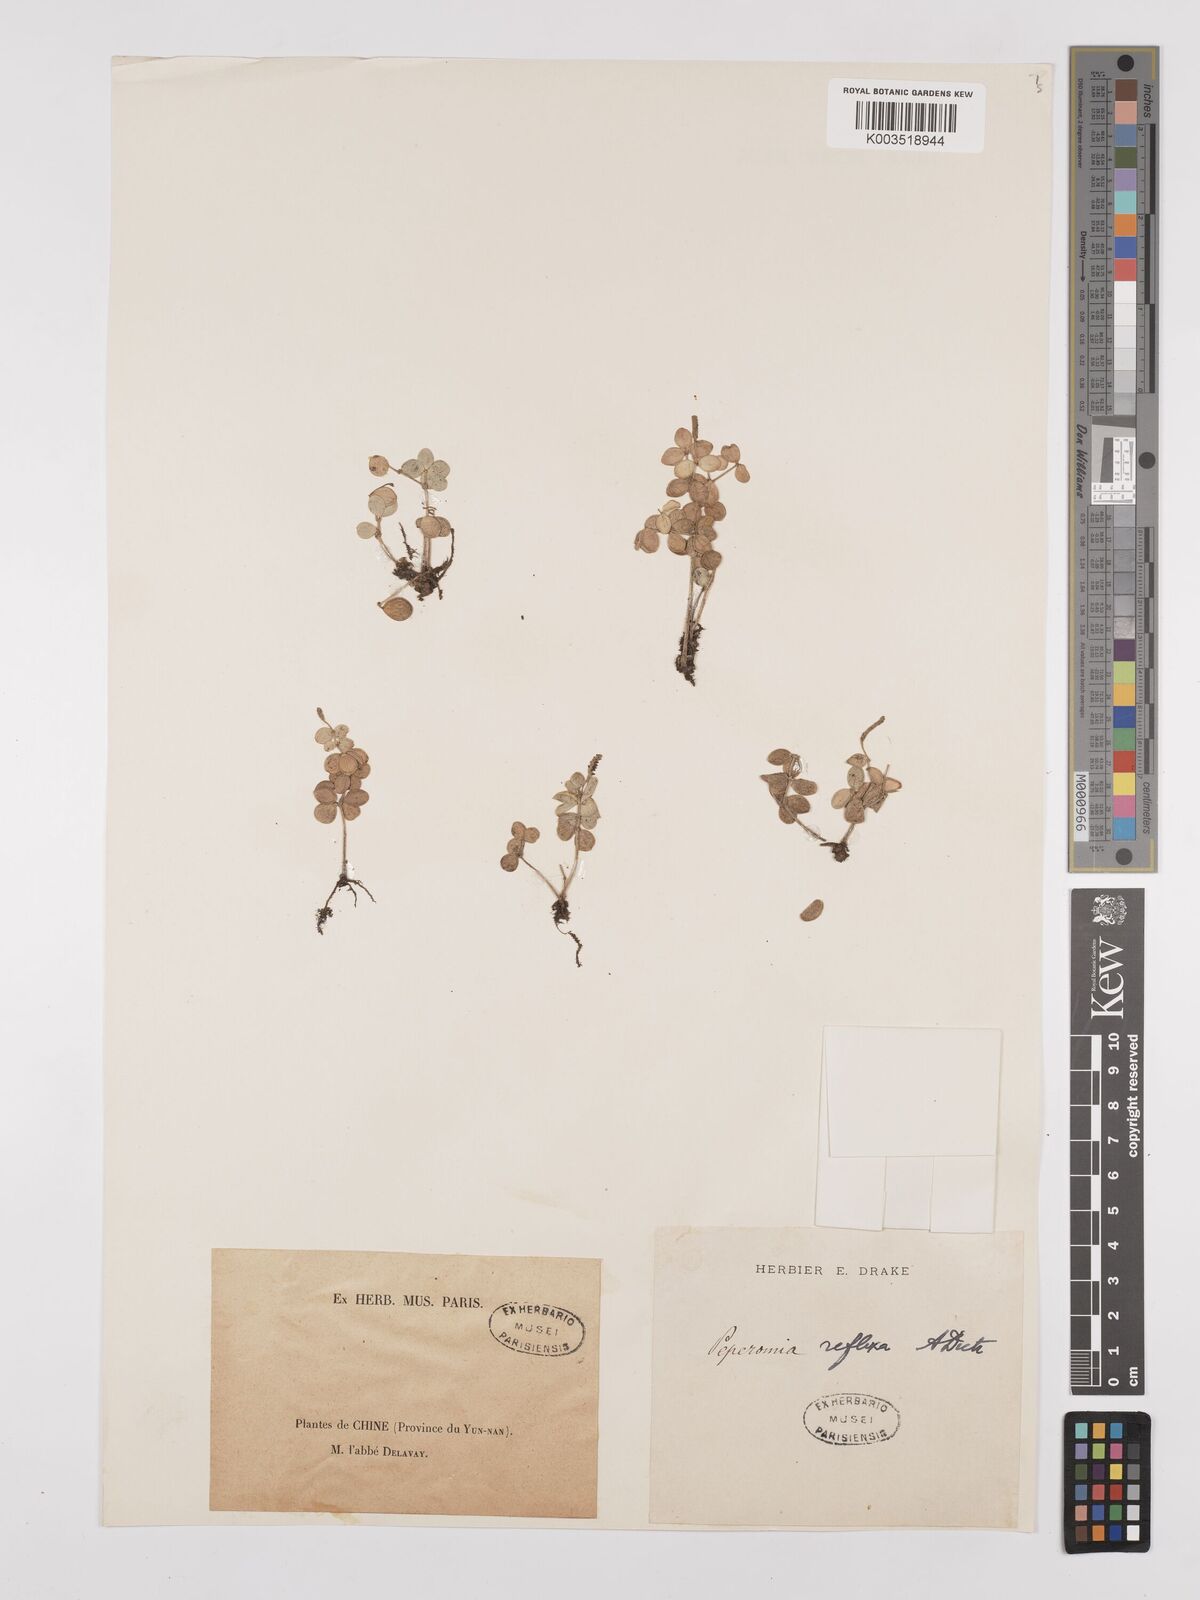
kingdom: Plantae
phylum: Tracheophyta
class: Magnoliopsida
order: Piperales
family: Piperaceae
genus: Peperomia
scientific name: Peperomia tetraphylla
